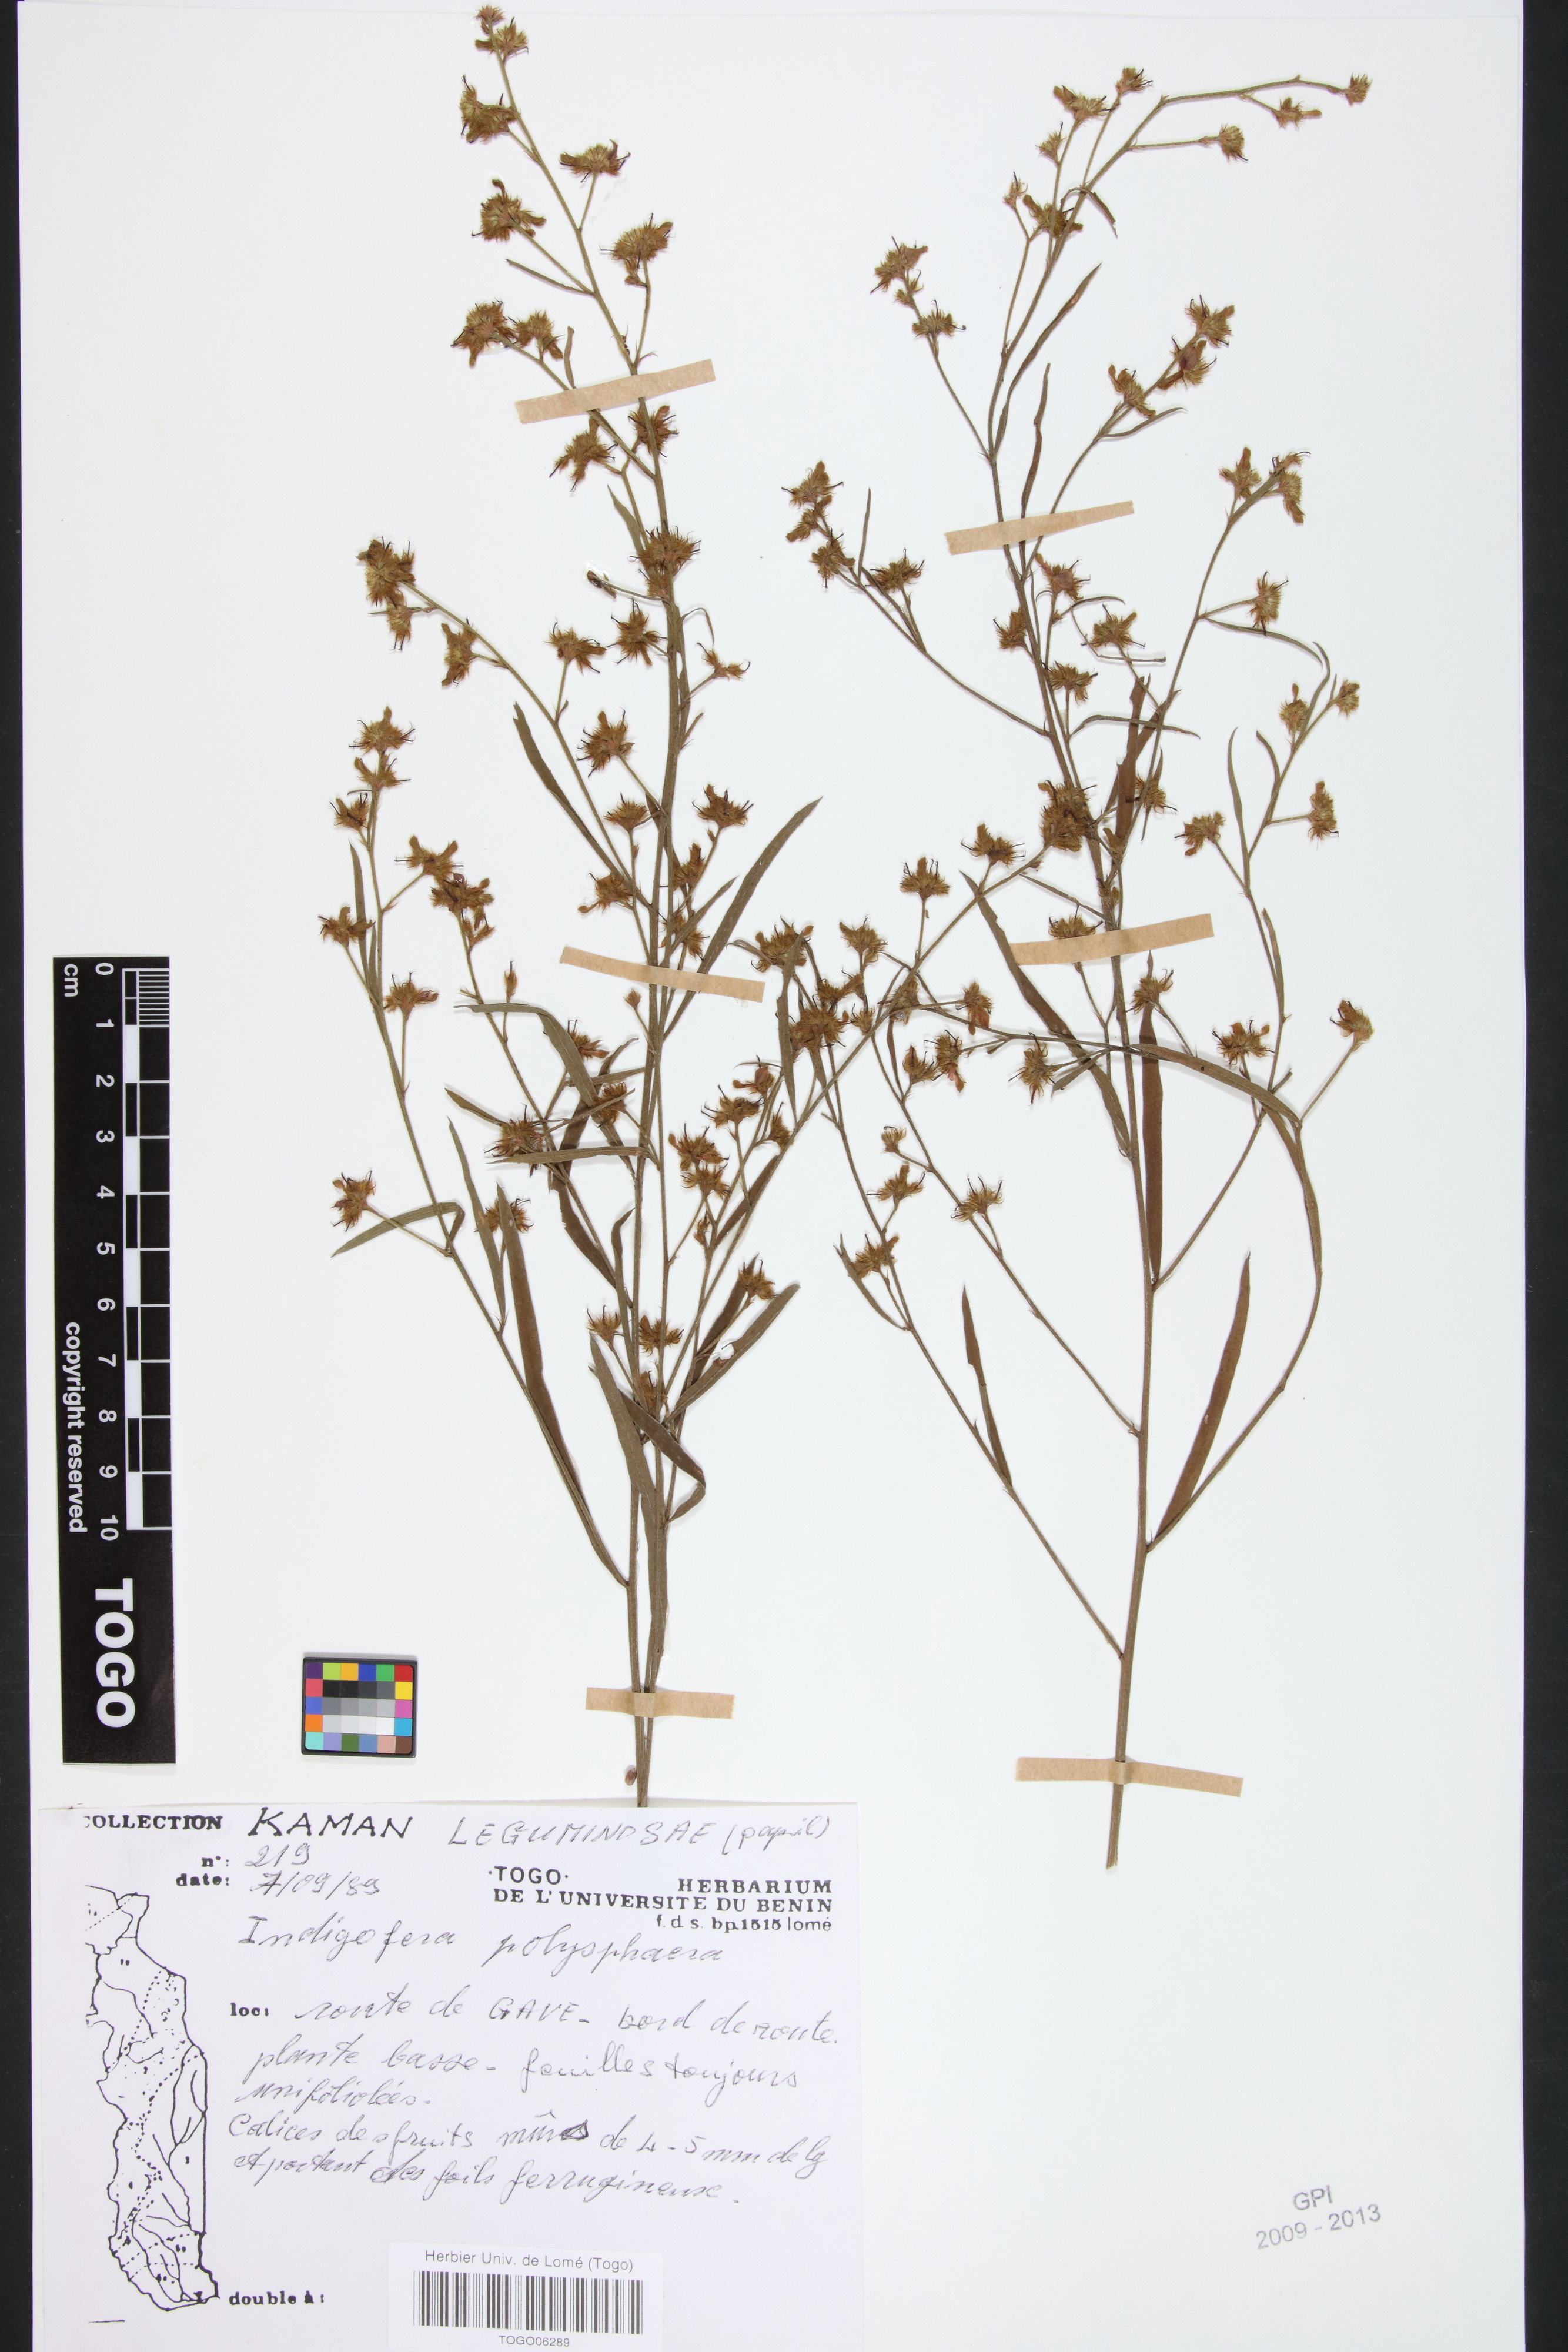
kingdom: Plantae
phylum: Tracheophyta
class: Magnoliopsida
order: Fabales
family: Fabaceae
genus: Indigofera
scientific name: Indigofera polysphaera
